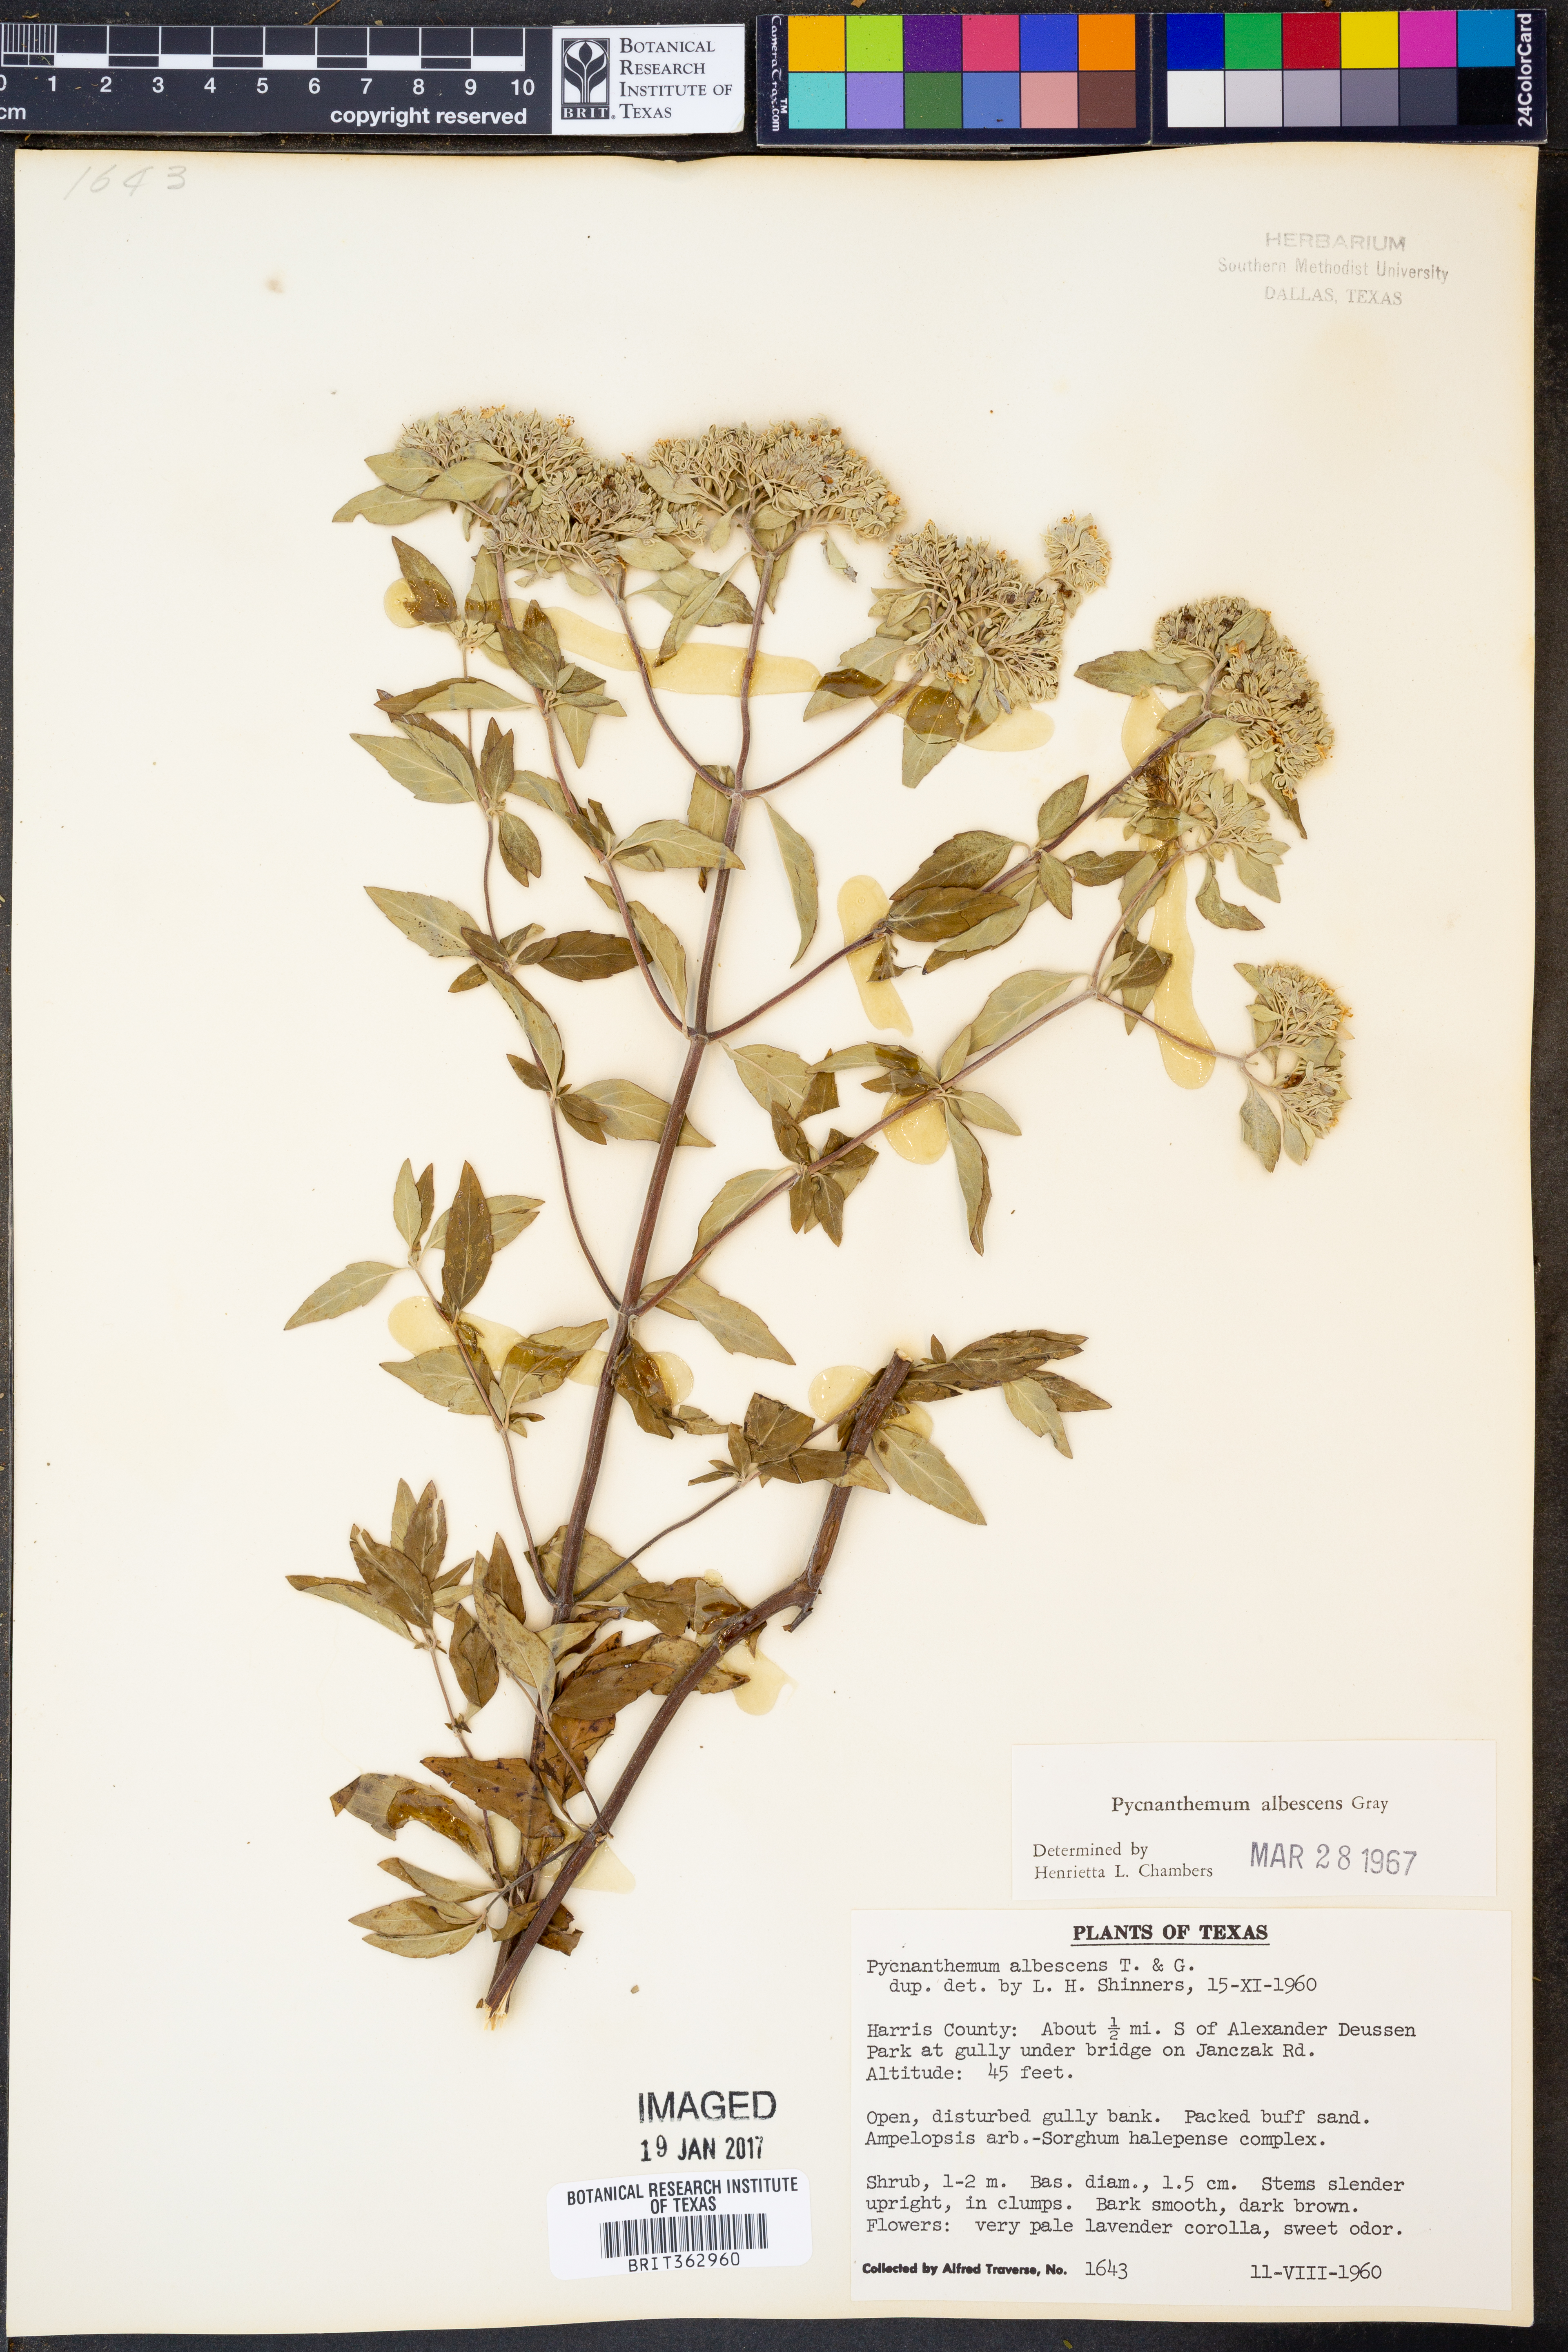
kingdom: Plantae
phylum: Tracheophyta
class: Magnoliopsida
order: Lamiales
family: Lamiaceae
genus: Pycnanthemum
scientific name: Pycnanthemum albescens
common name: White-leaf mountain-mint
